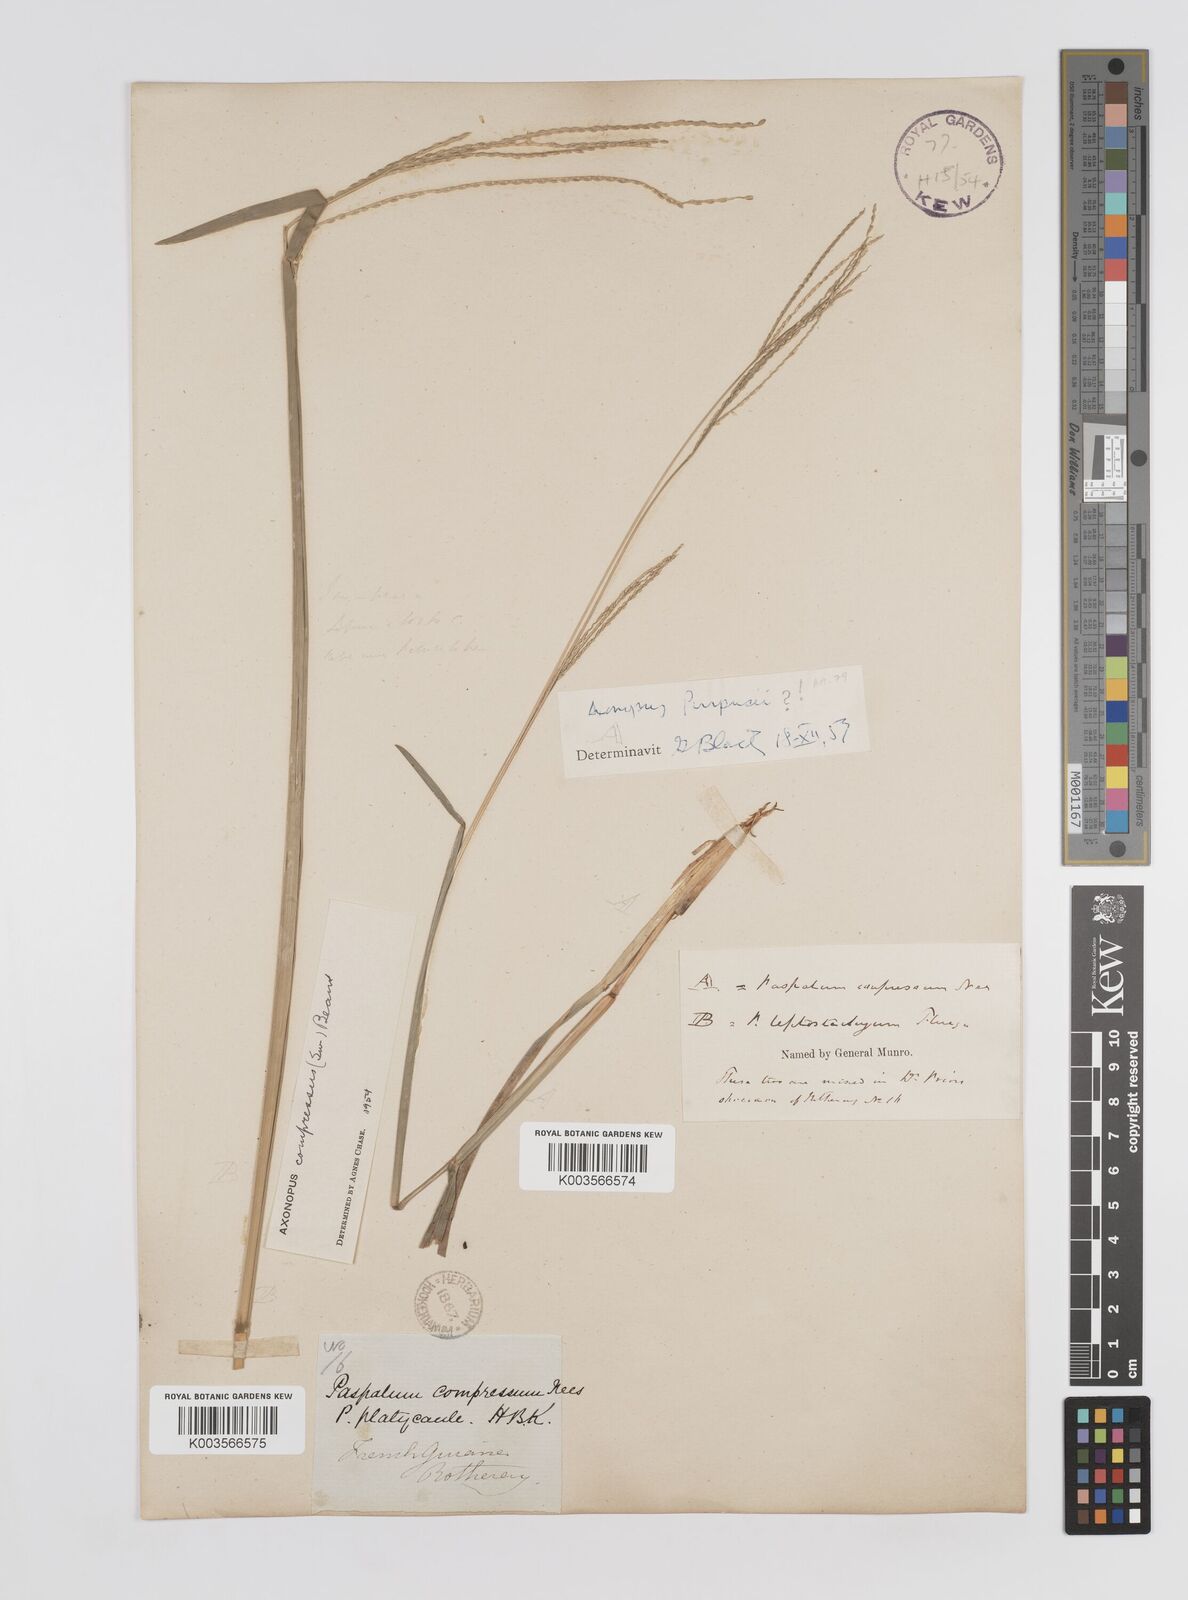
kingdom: Plantae
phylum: Tracheophyta
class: Liliopsida
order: Poales
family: Poaceae
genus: Axonopus
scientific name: Axonopus compressus
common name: American carpet grass
